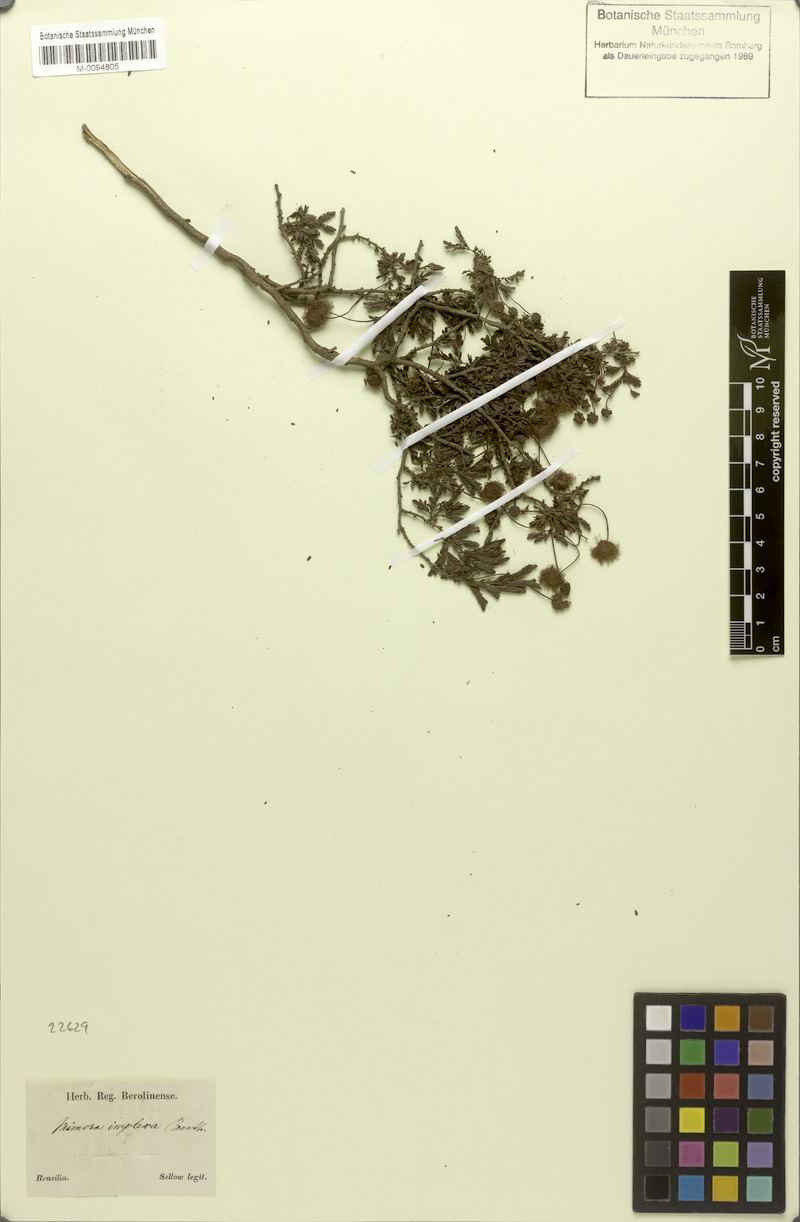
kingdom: Plantae
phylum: Tracheophyta
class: Magnoliopsida
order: Fabales
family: Fabaceae
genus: Mimosa
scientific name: Mimosa implexa
